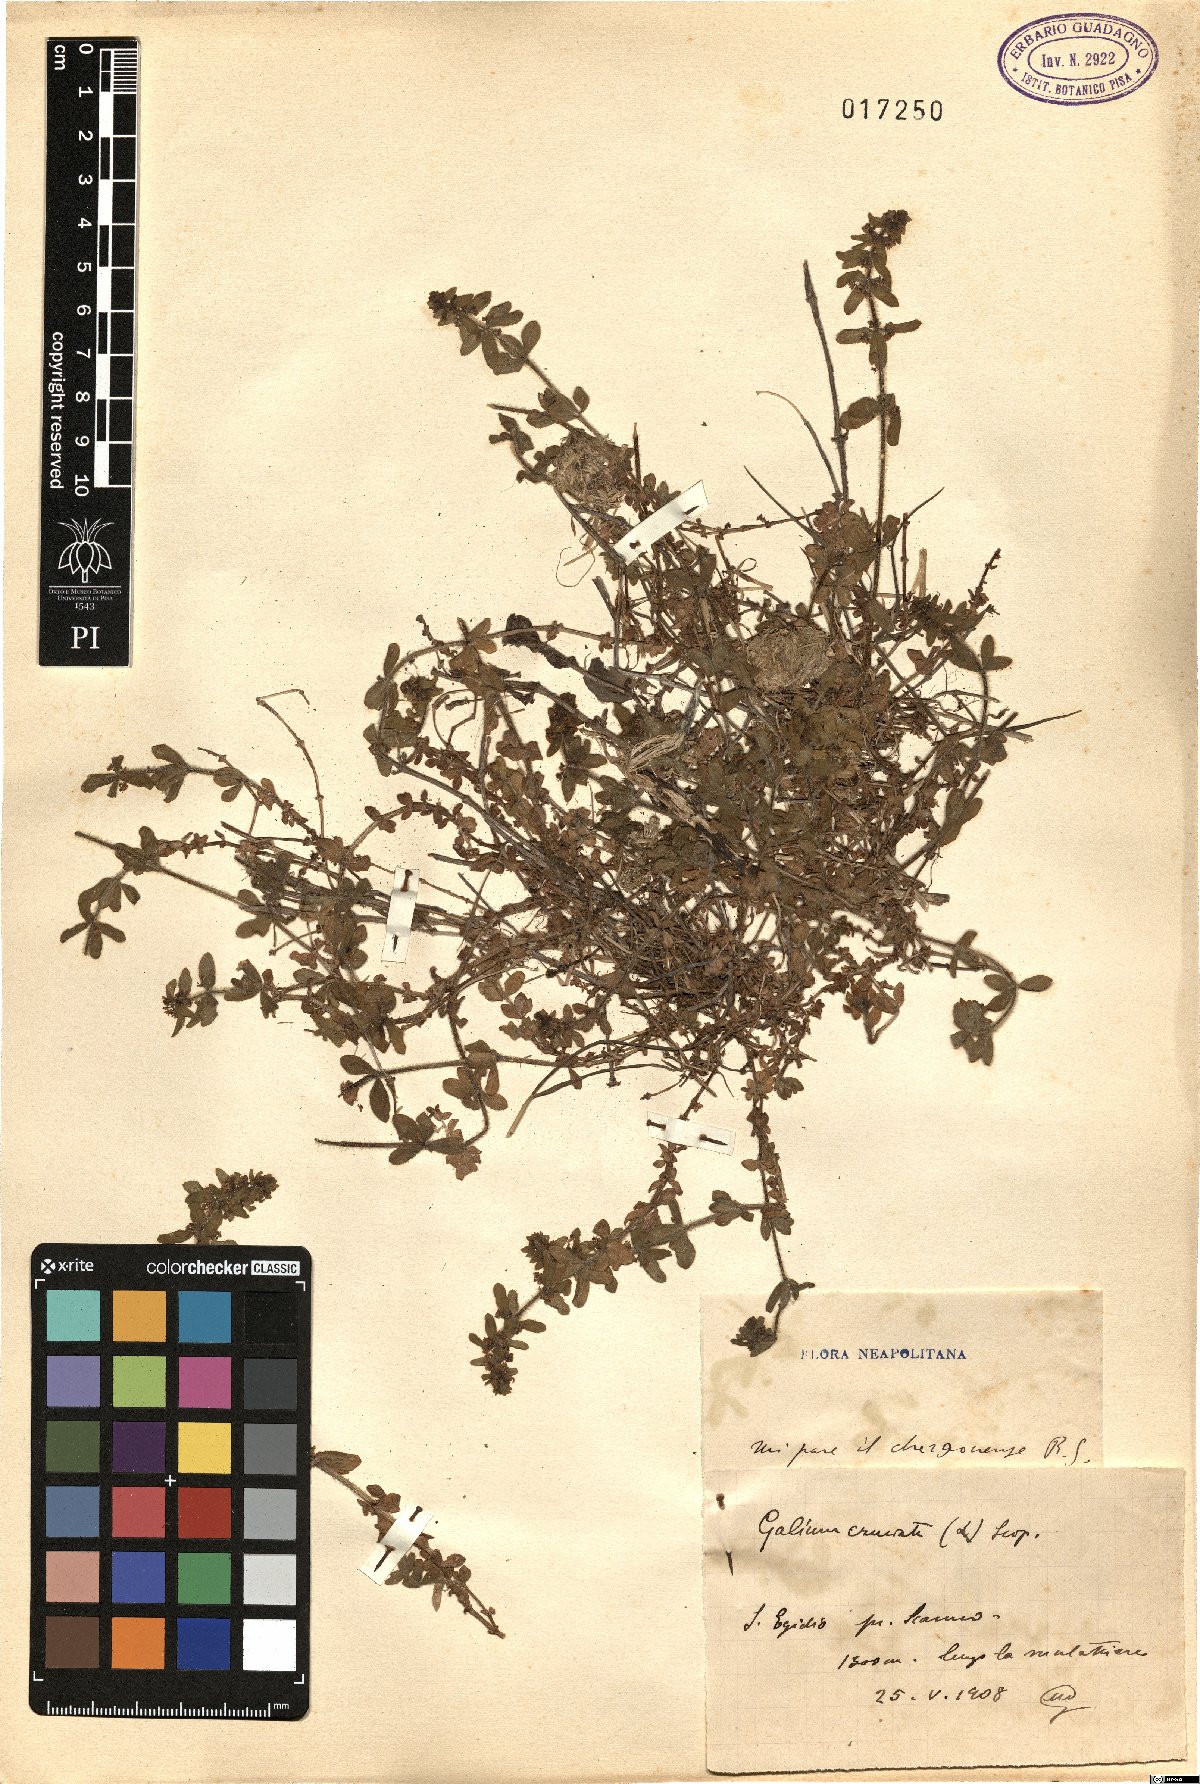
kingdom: Plantae
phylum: Tracheophyta
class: Magnoliopsida
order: Gentianales
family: Rubiaceae
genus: Cruciata
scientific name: Cruciata taurica
